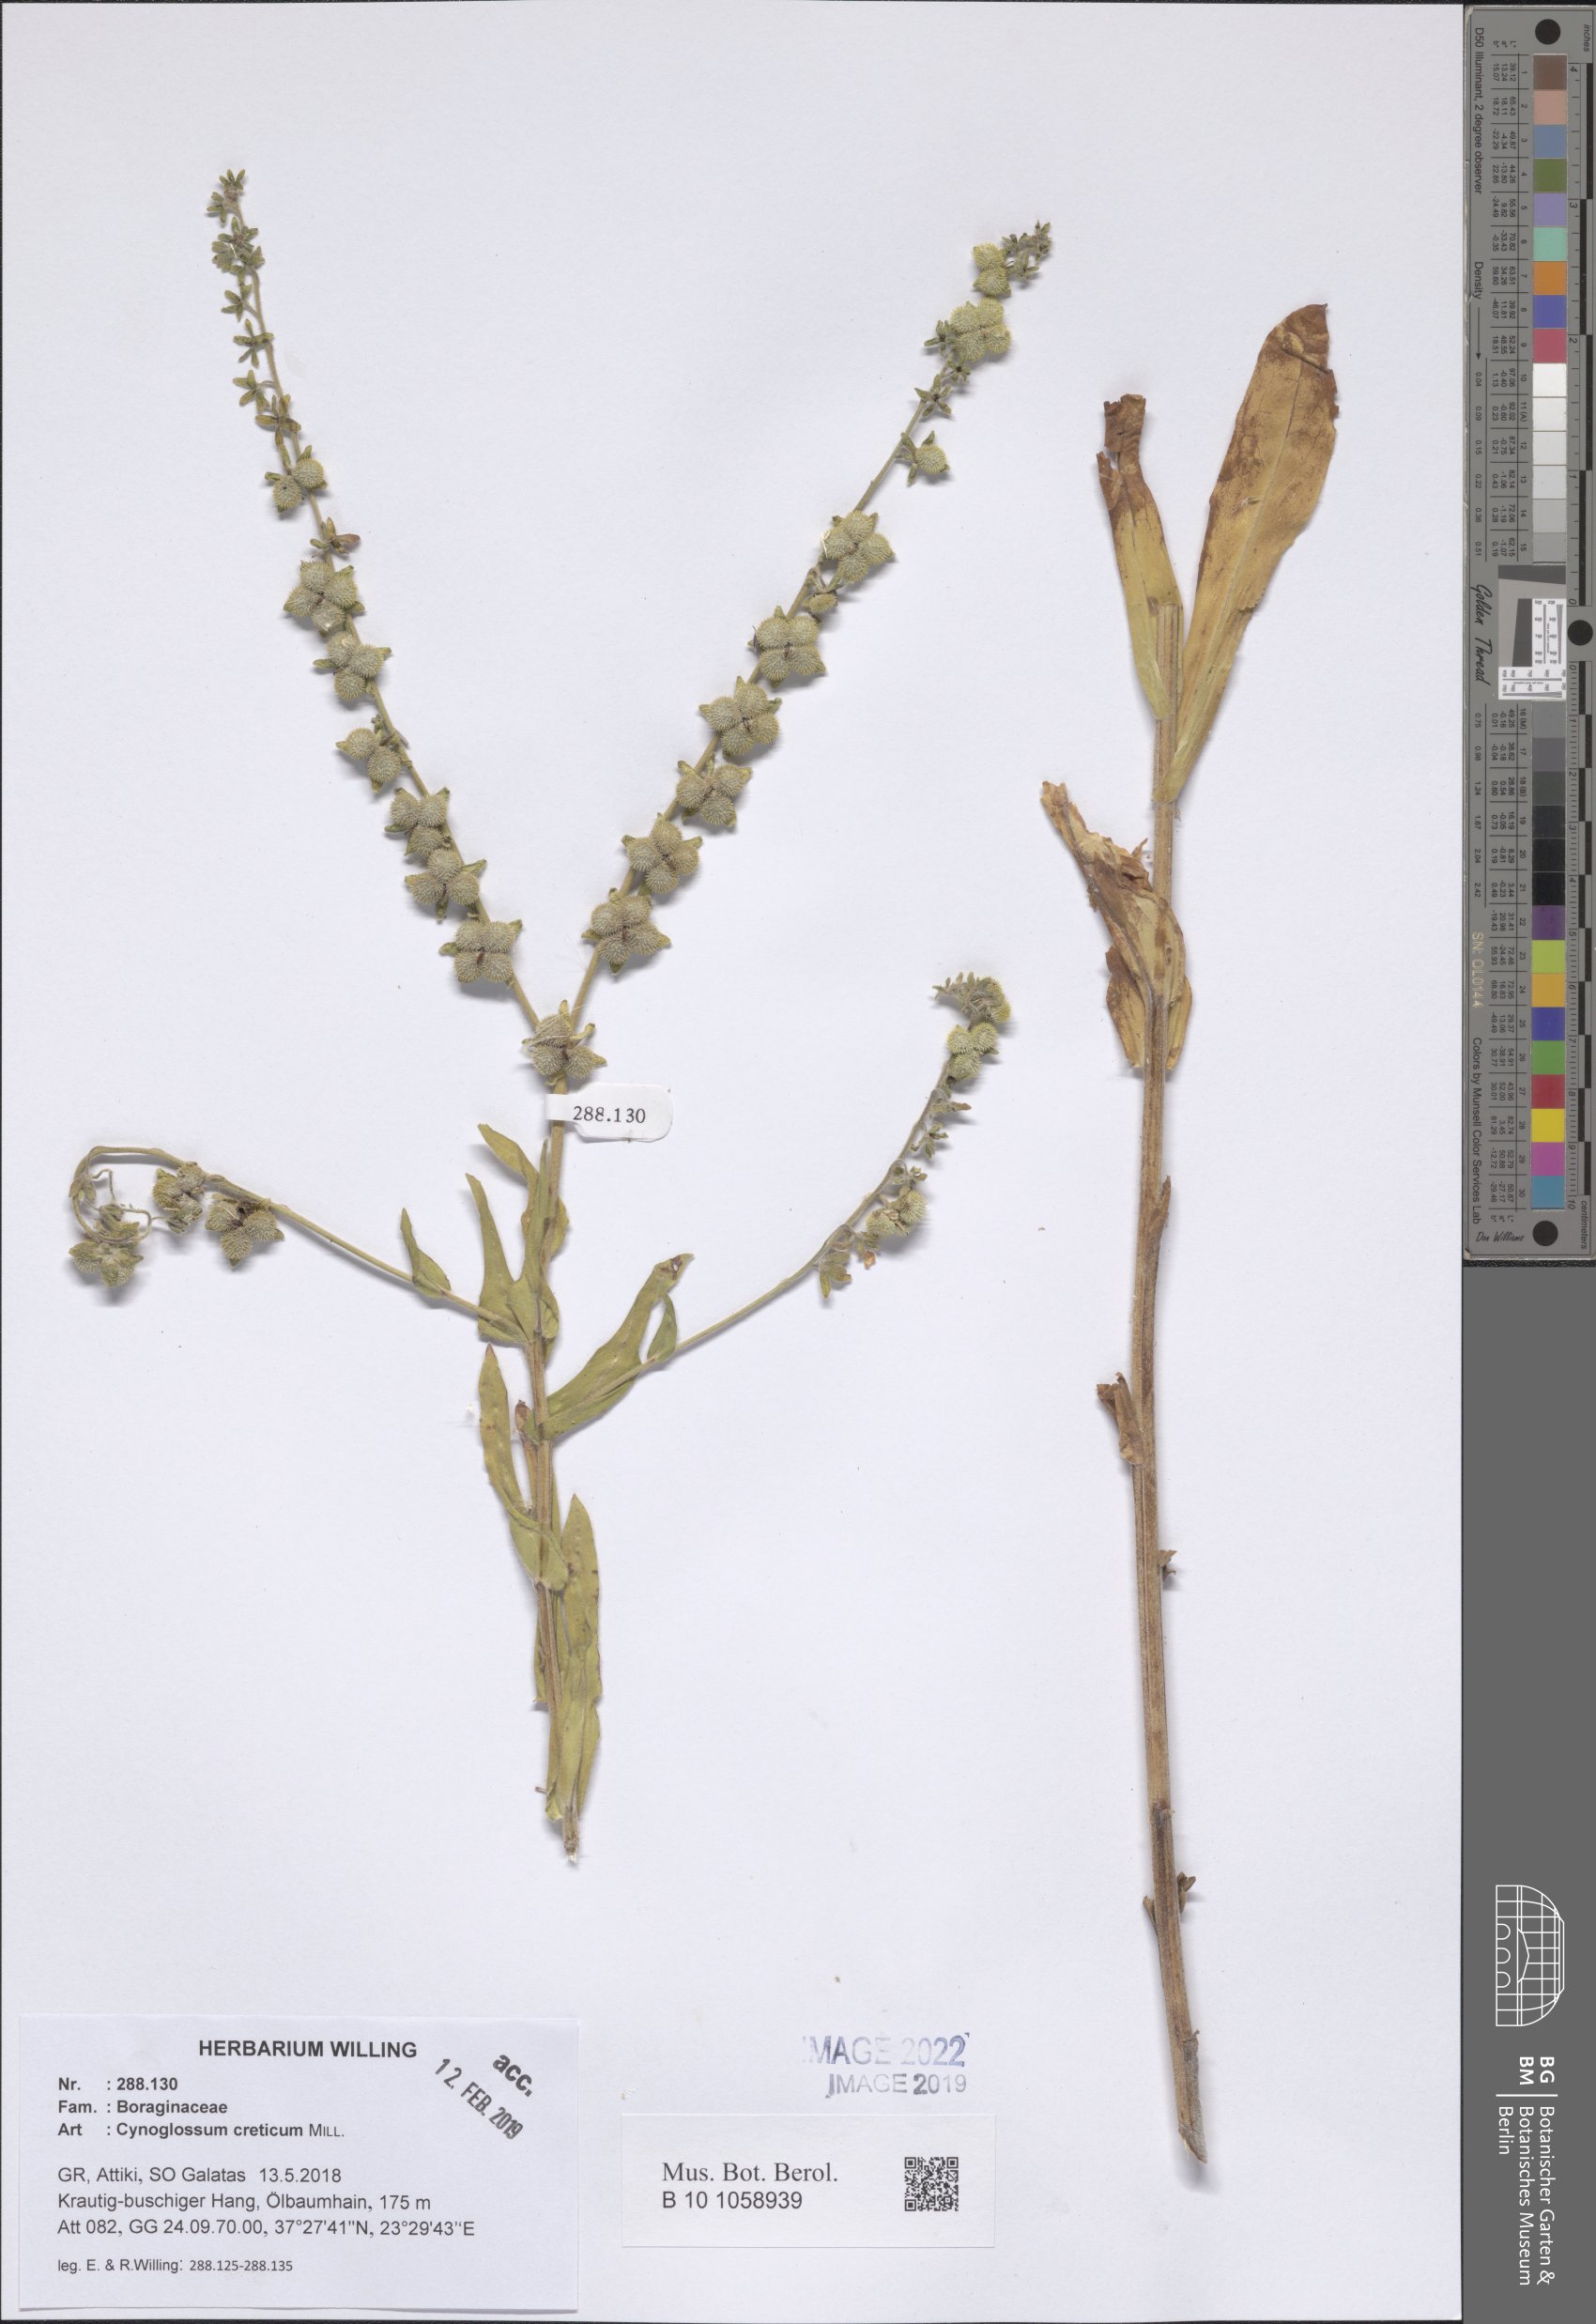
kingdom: Plantae
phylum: Tracheophyta
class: Magnoliopsida
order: Boraginales
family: Boraginaceae
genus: Cynoglossum
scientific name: Cynoglossum creticum
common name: Blue hound's tongue
